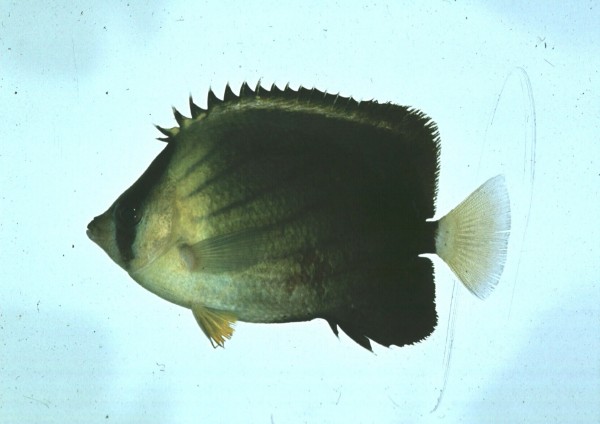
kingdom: Animalia
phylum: Chordata
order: Perciformes
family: Chaetodontidae
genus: Chaetodon
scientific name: Chaetodon blackburnii
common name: Blackburn's butterflyfish
